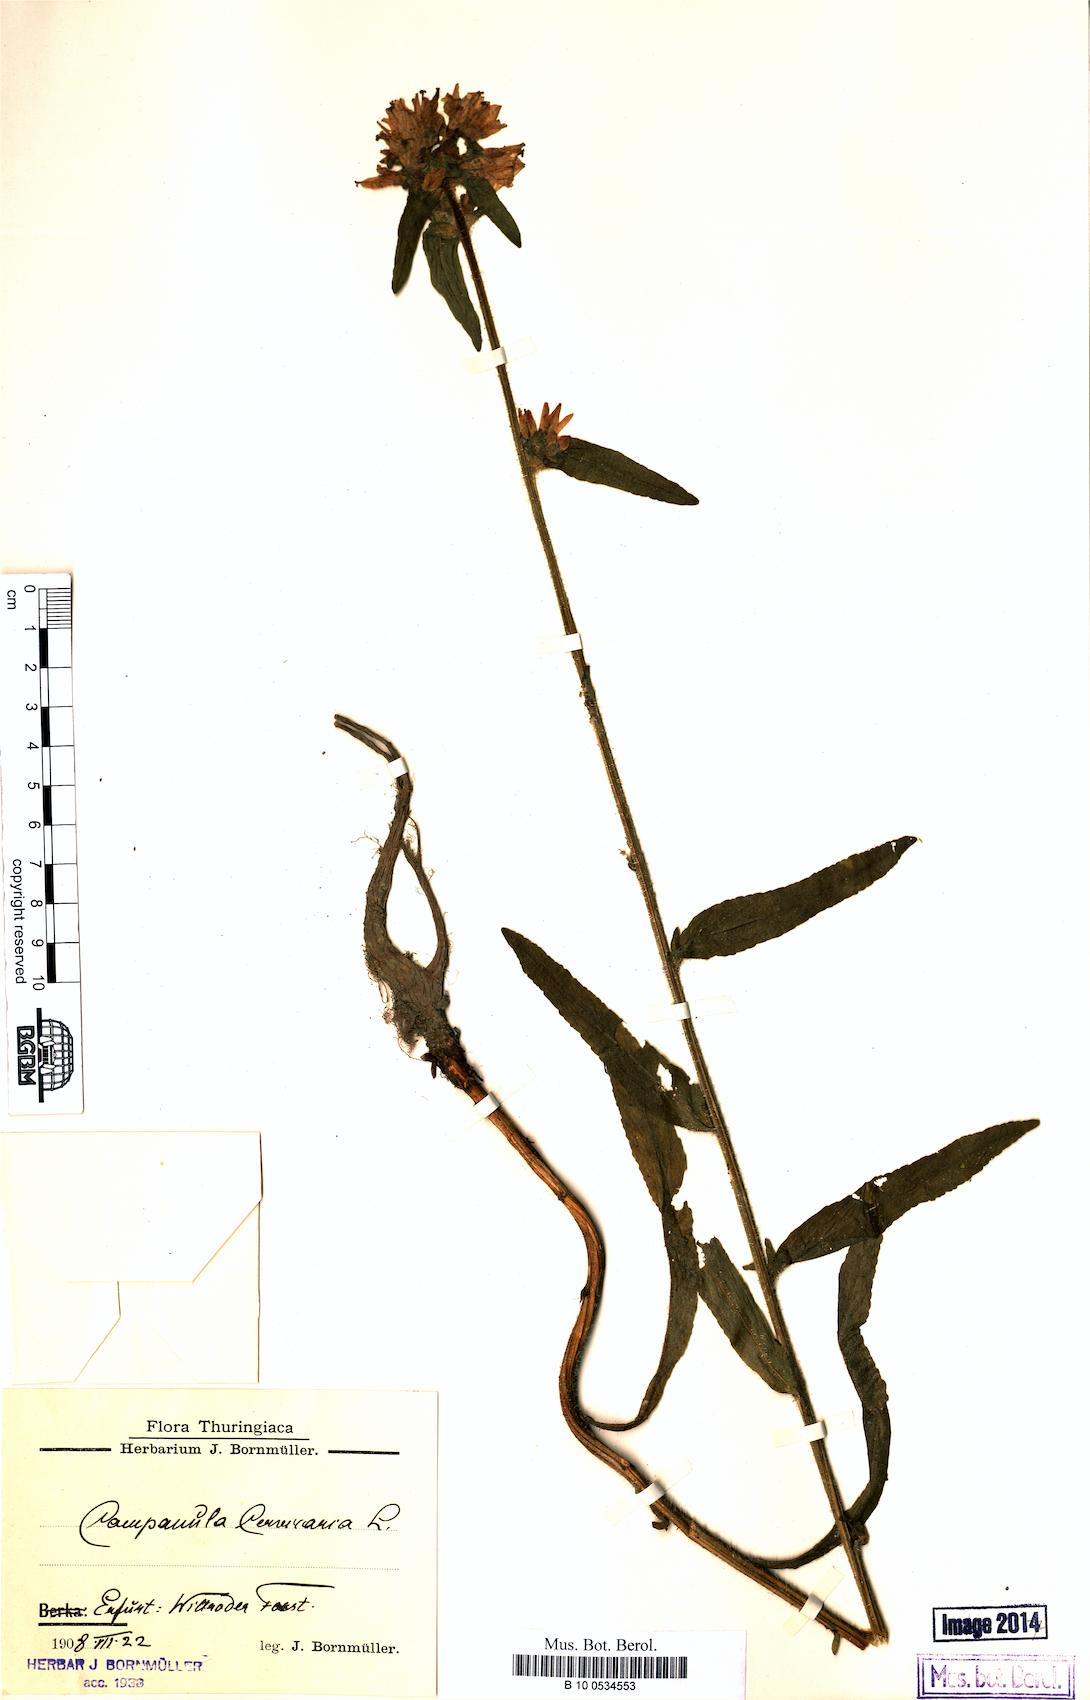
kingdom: Plantae
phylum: Tracheophyta
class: Magnoliopsida
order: Asterales
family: Campanulaceae
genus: Campanula
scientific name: Campanula cervicaria
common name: Bristly bellflower
